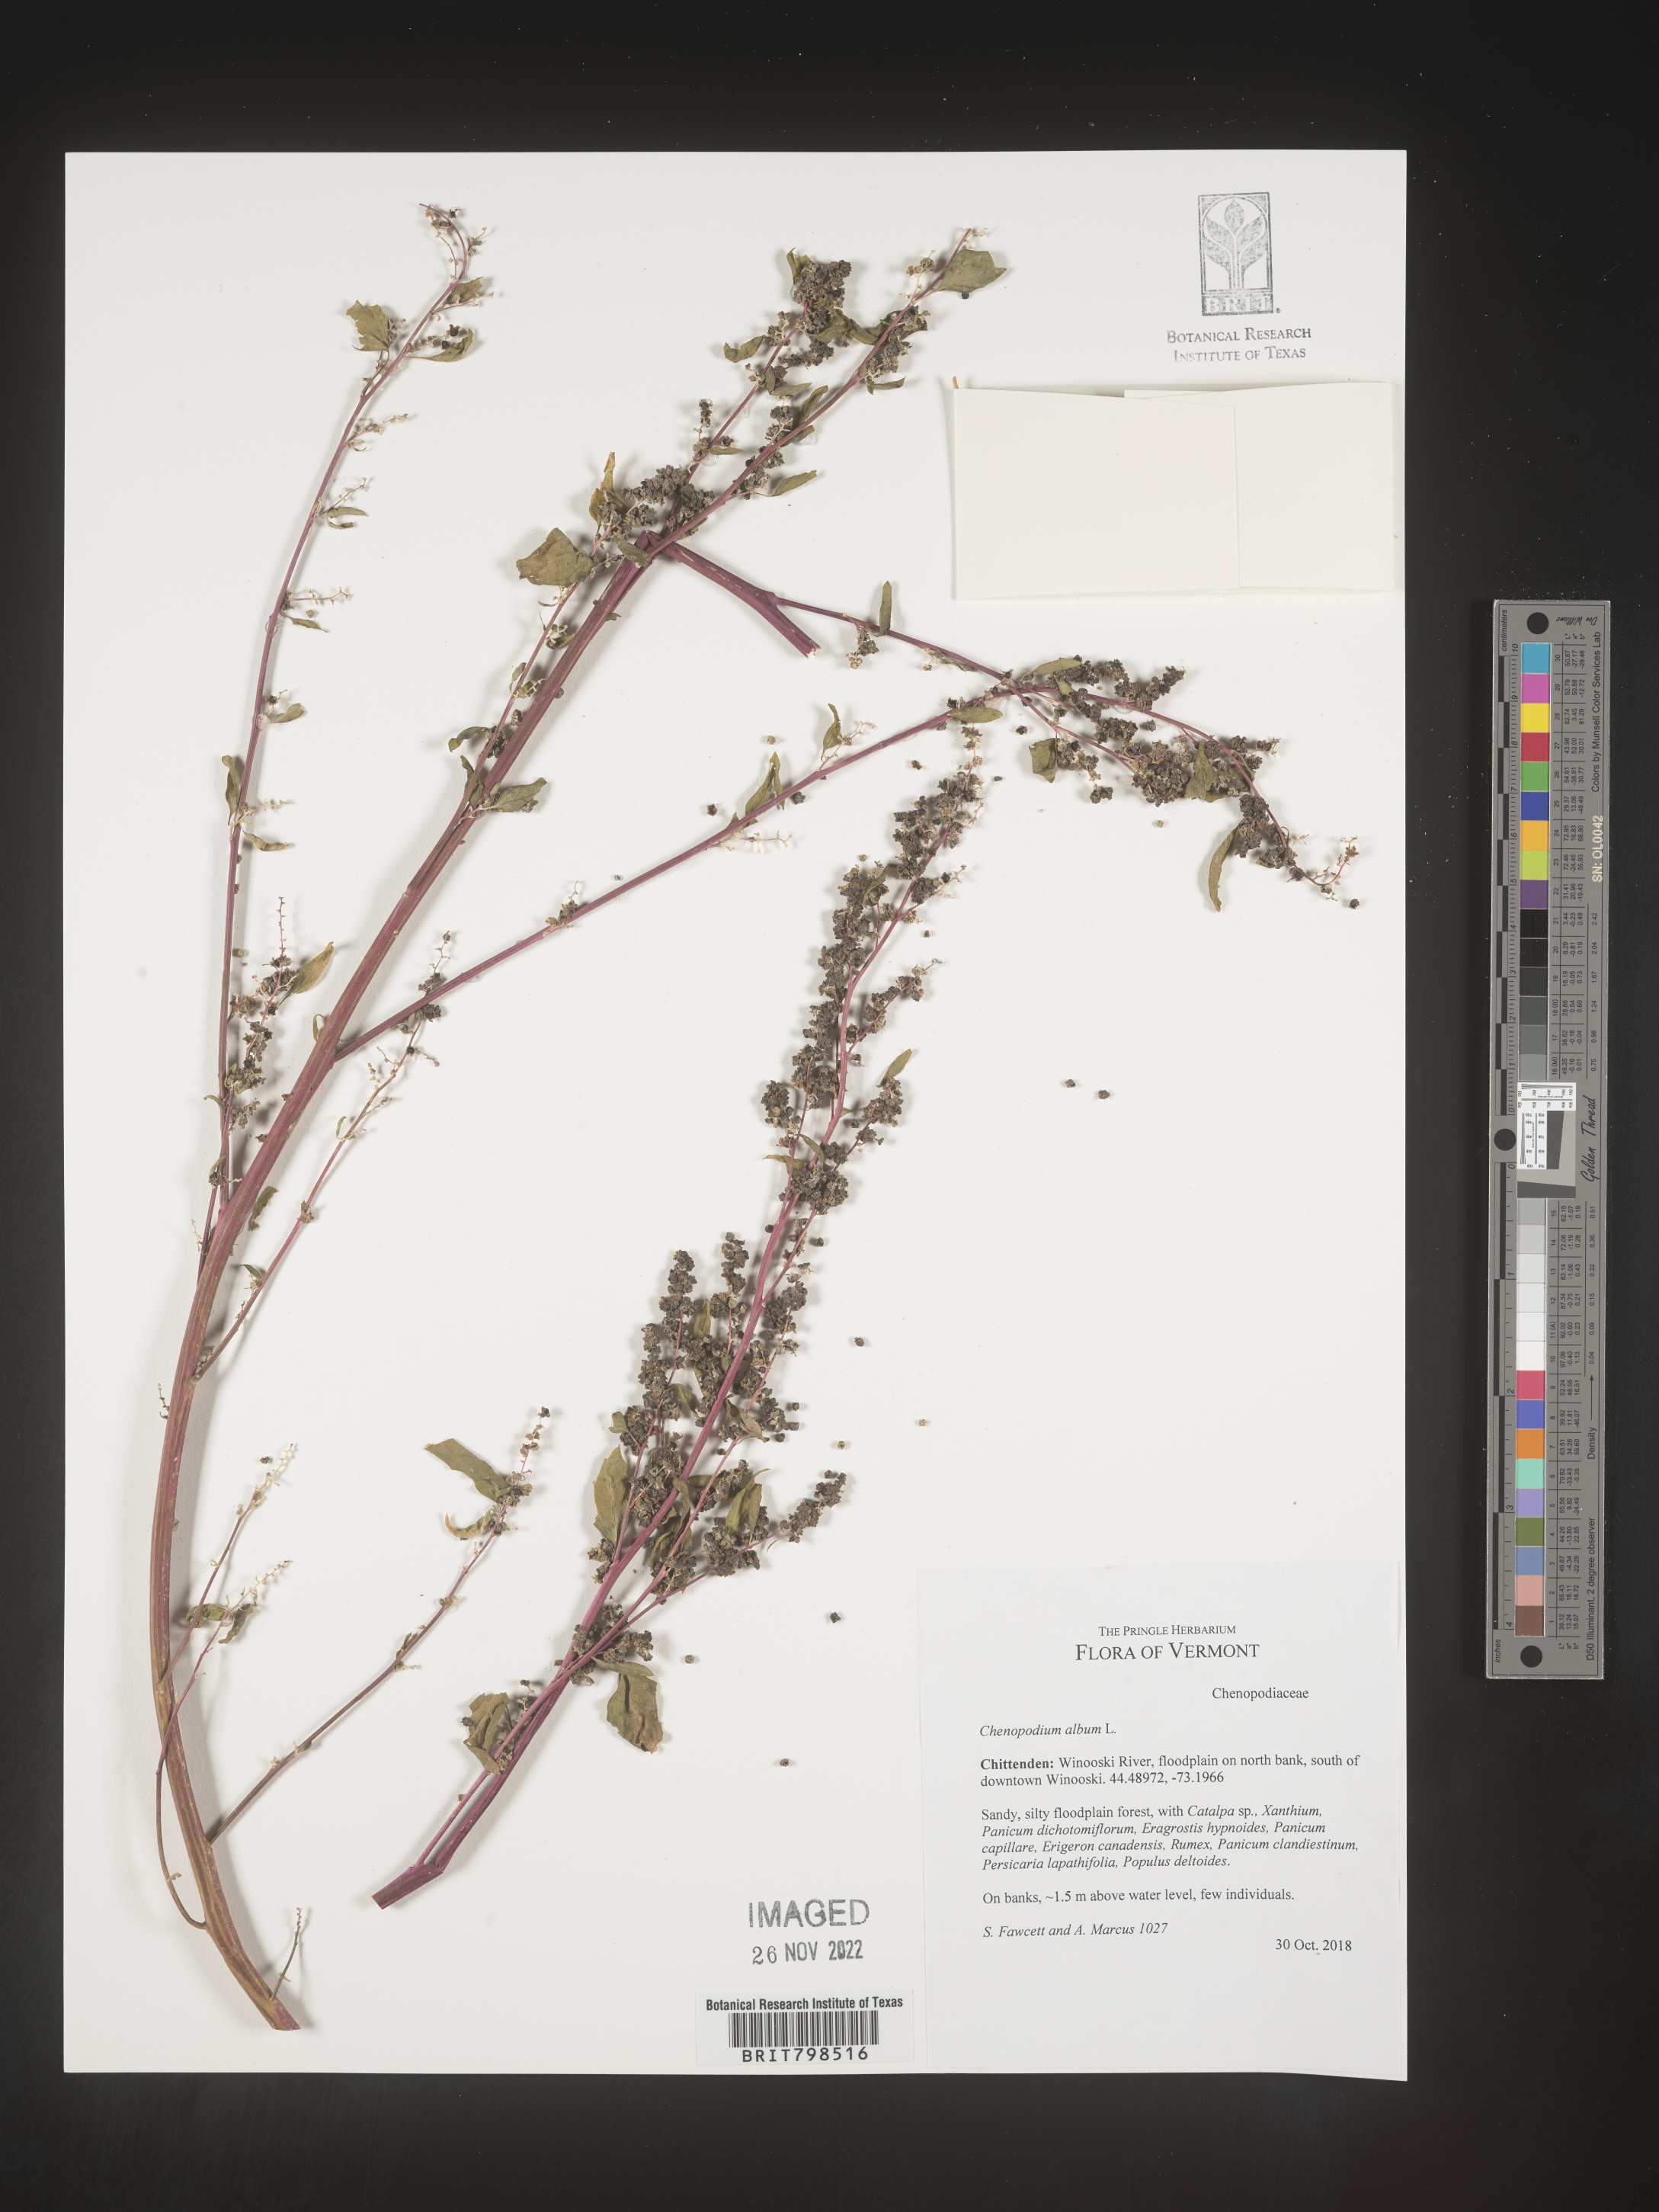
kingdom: Plantae
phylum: Tracheophyta
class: Magnoliopsida
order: Caryophyllales
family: Amaranthaceae
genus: Chenopodium
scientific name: Chenopodium album
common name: Fat-hen
